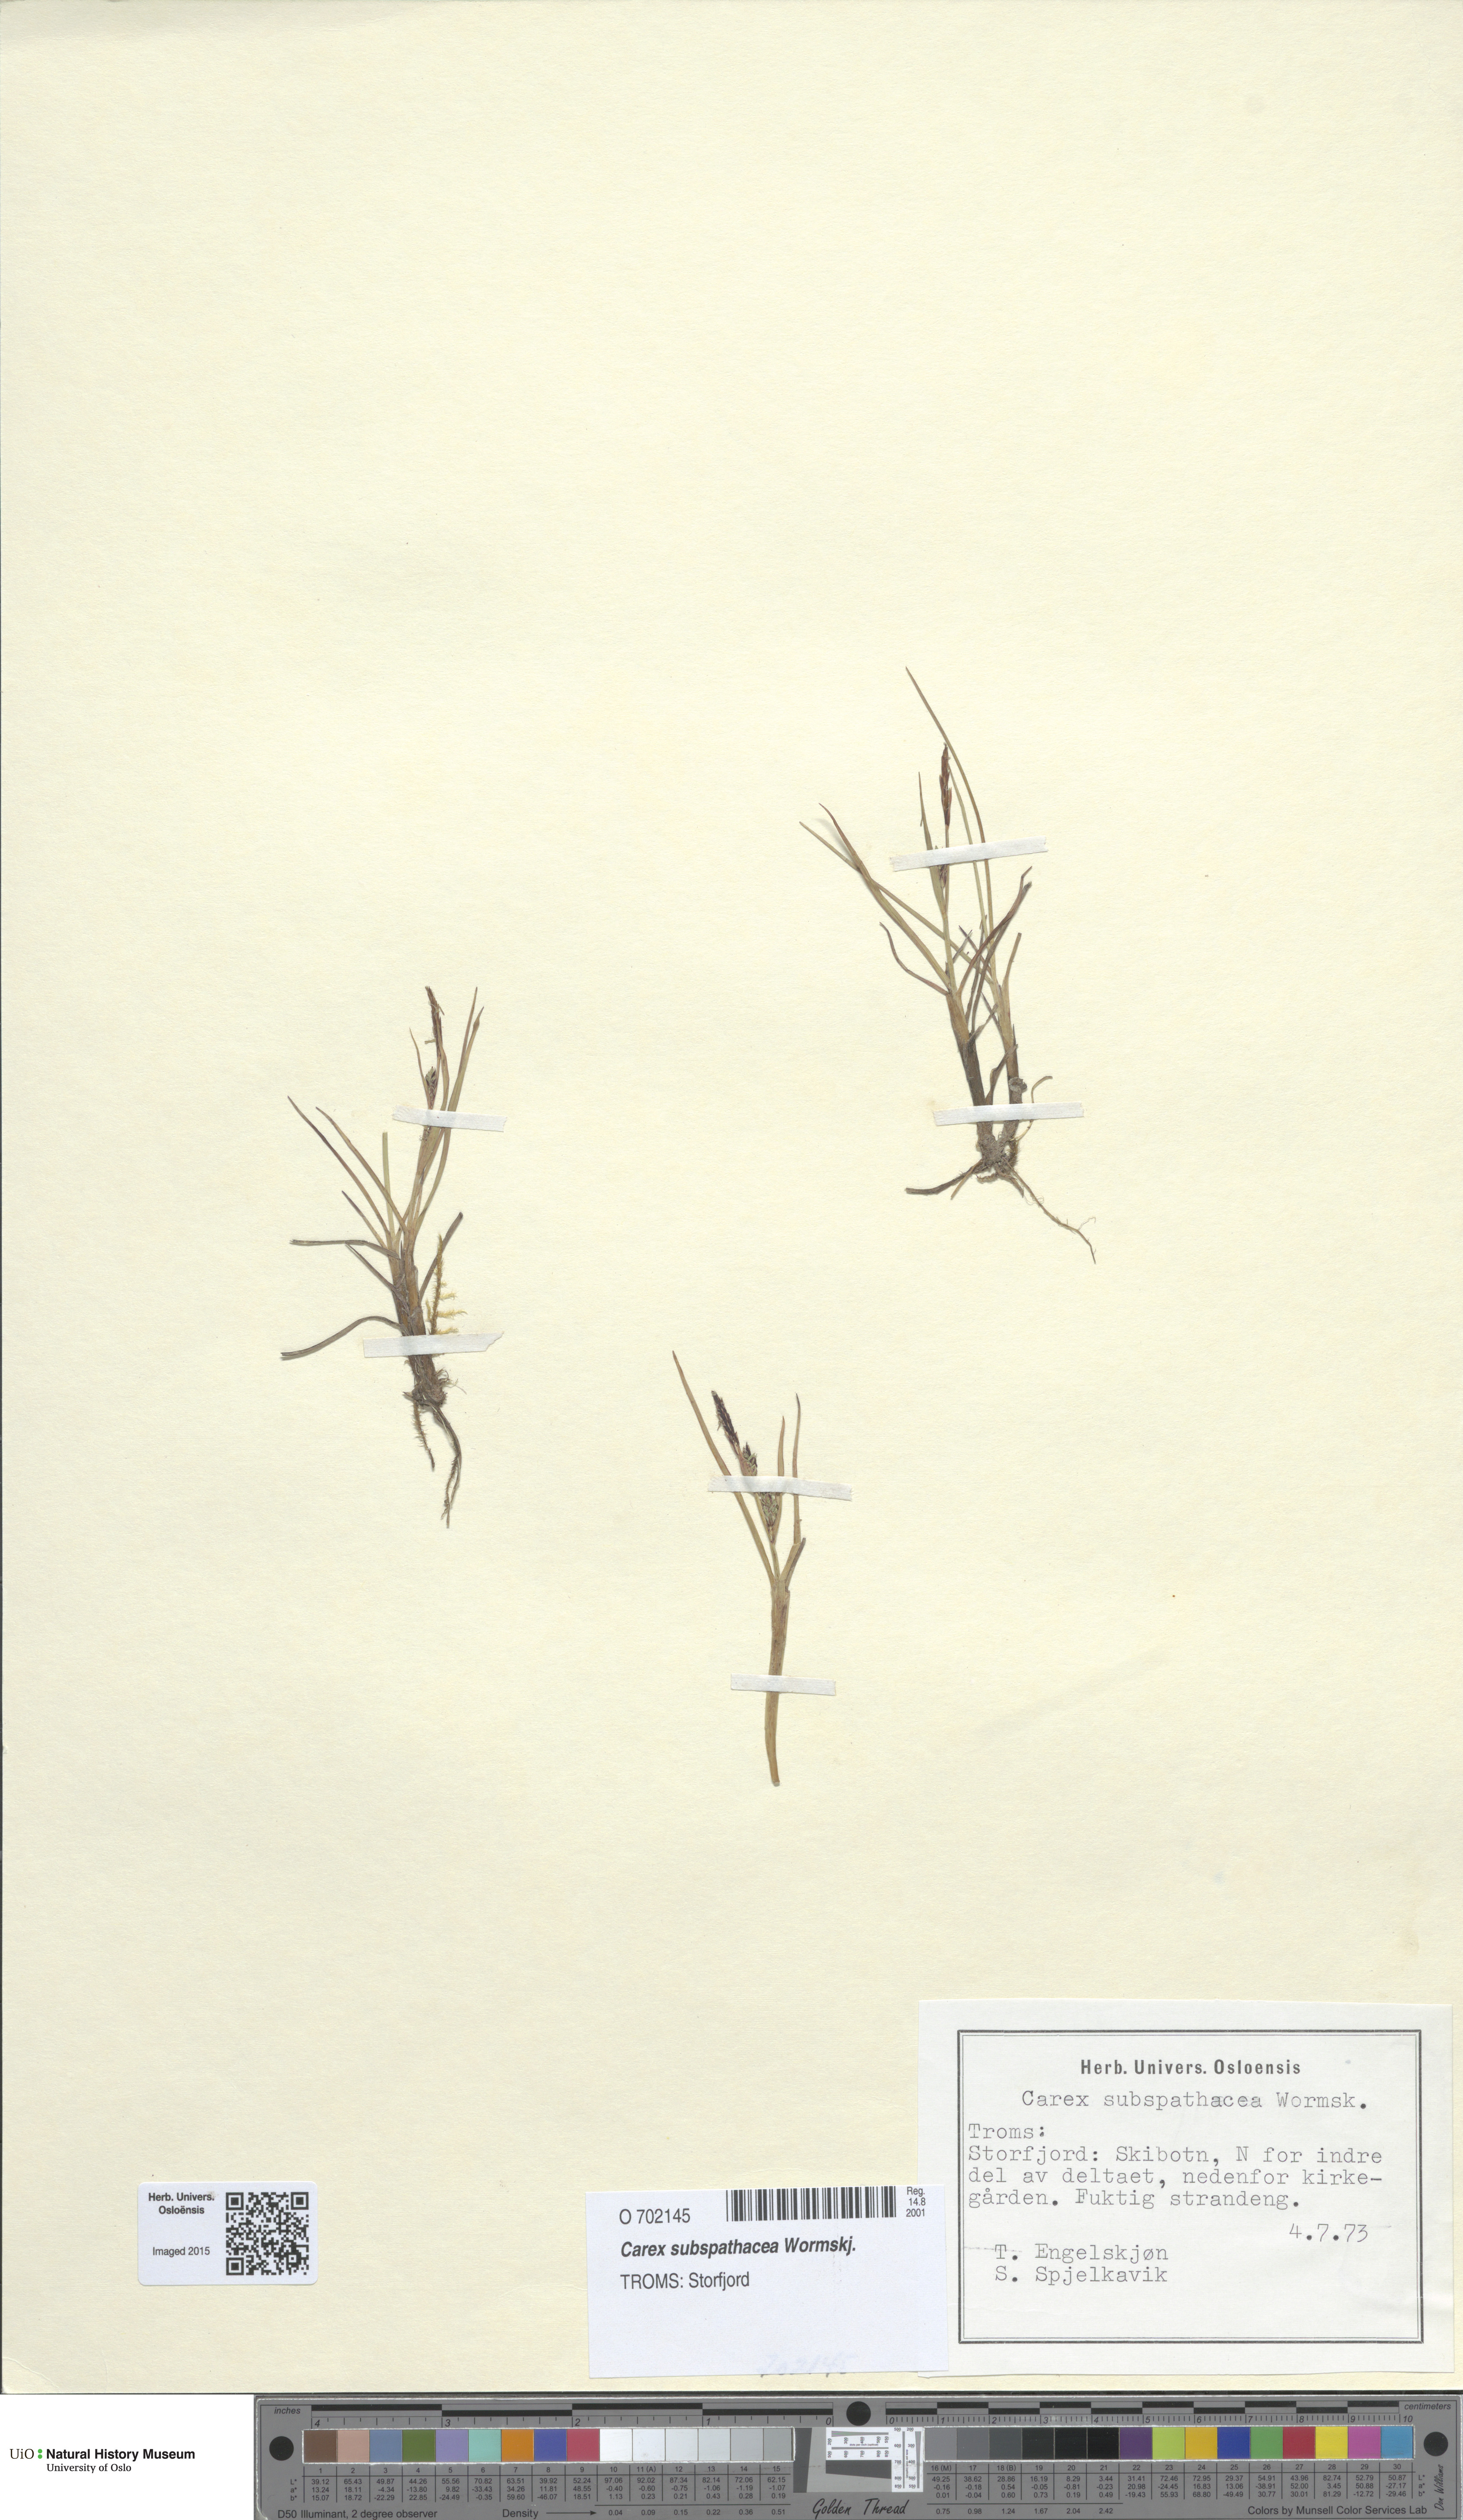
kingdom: Plantae
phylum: Tracheophyta
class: Liliopsida
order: Poales
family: Cyperaceae
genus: Carex
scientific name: Carex subspathacea
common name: Hoppner's sedge
